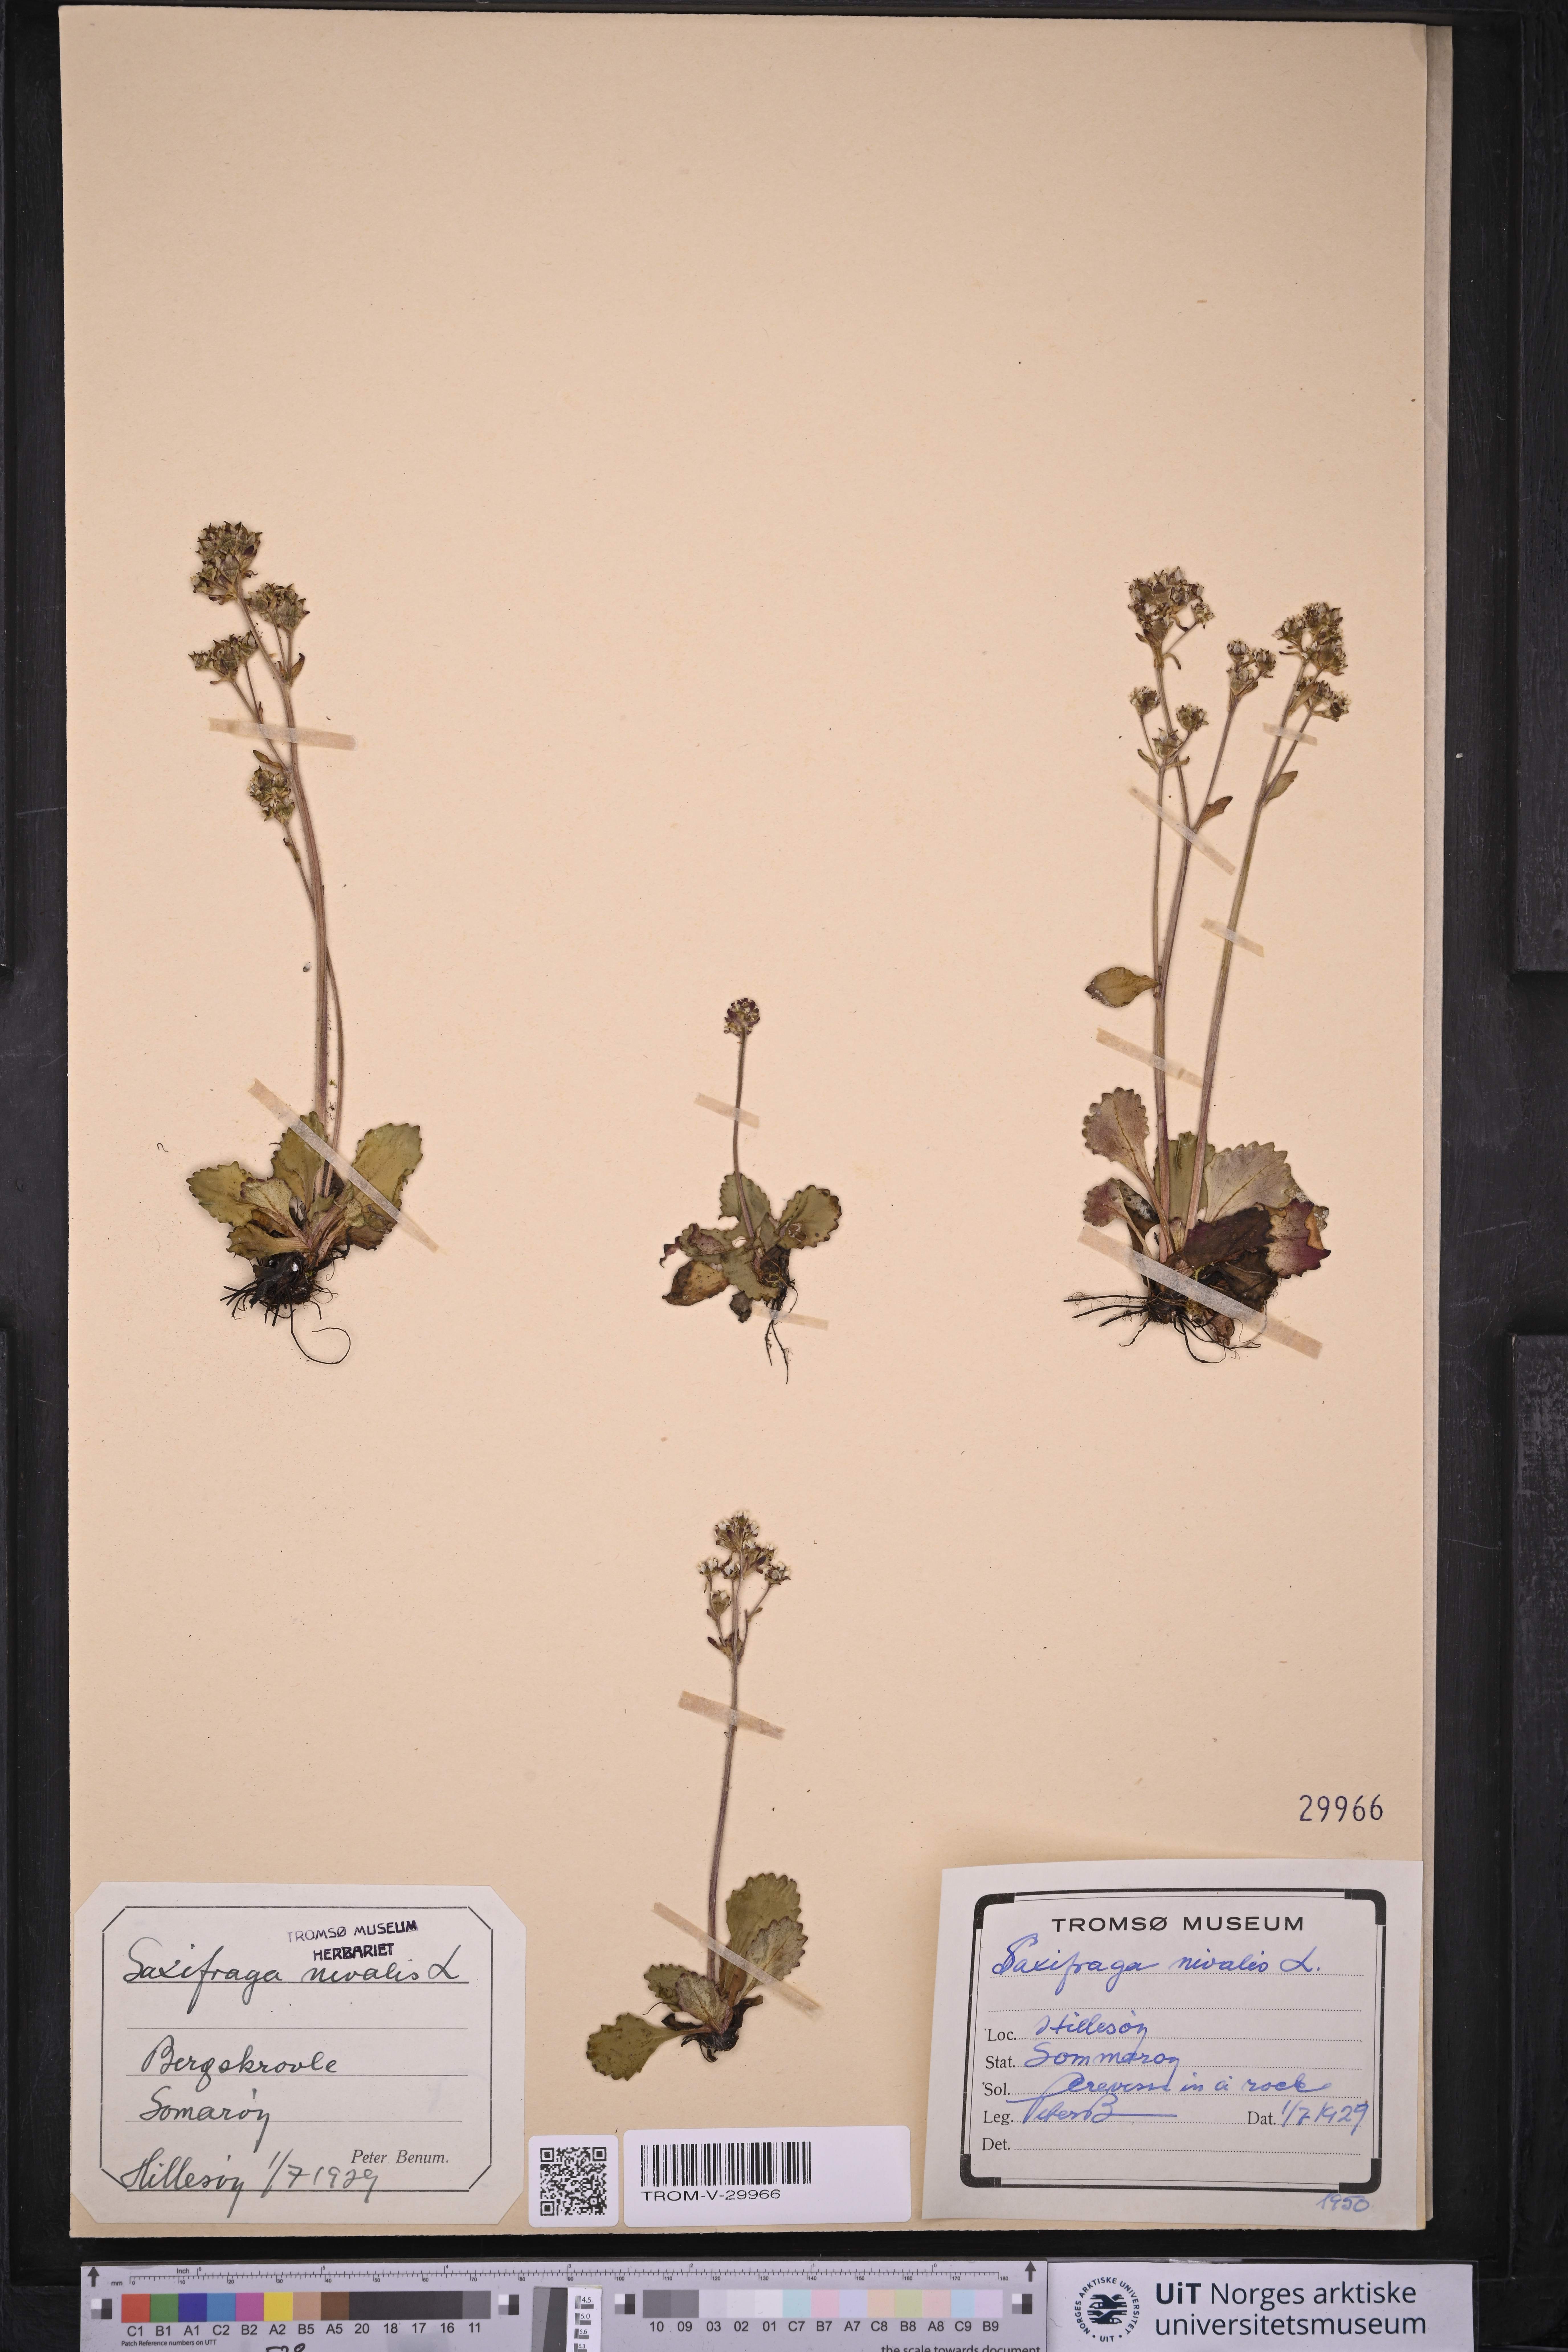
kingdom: Plantae
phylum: Tracheophyta
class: Magnoliopsida
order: Saxifragales
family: Saxifragaceae
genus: Micranthes
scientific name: Micranthes nivalis
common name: Alpine saxifrage
